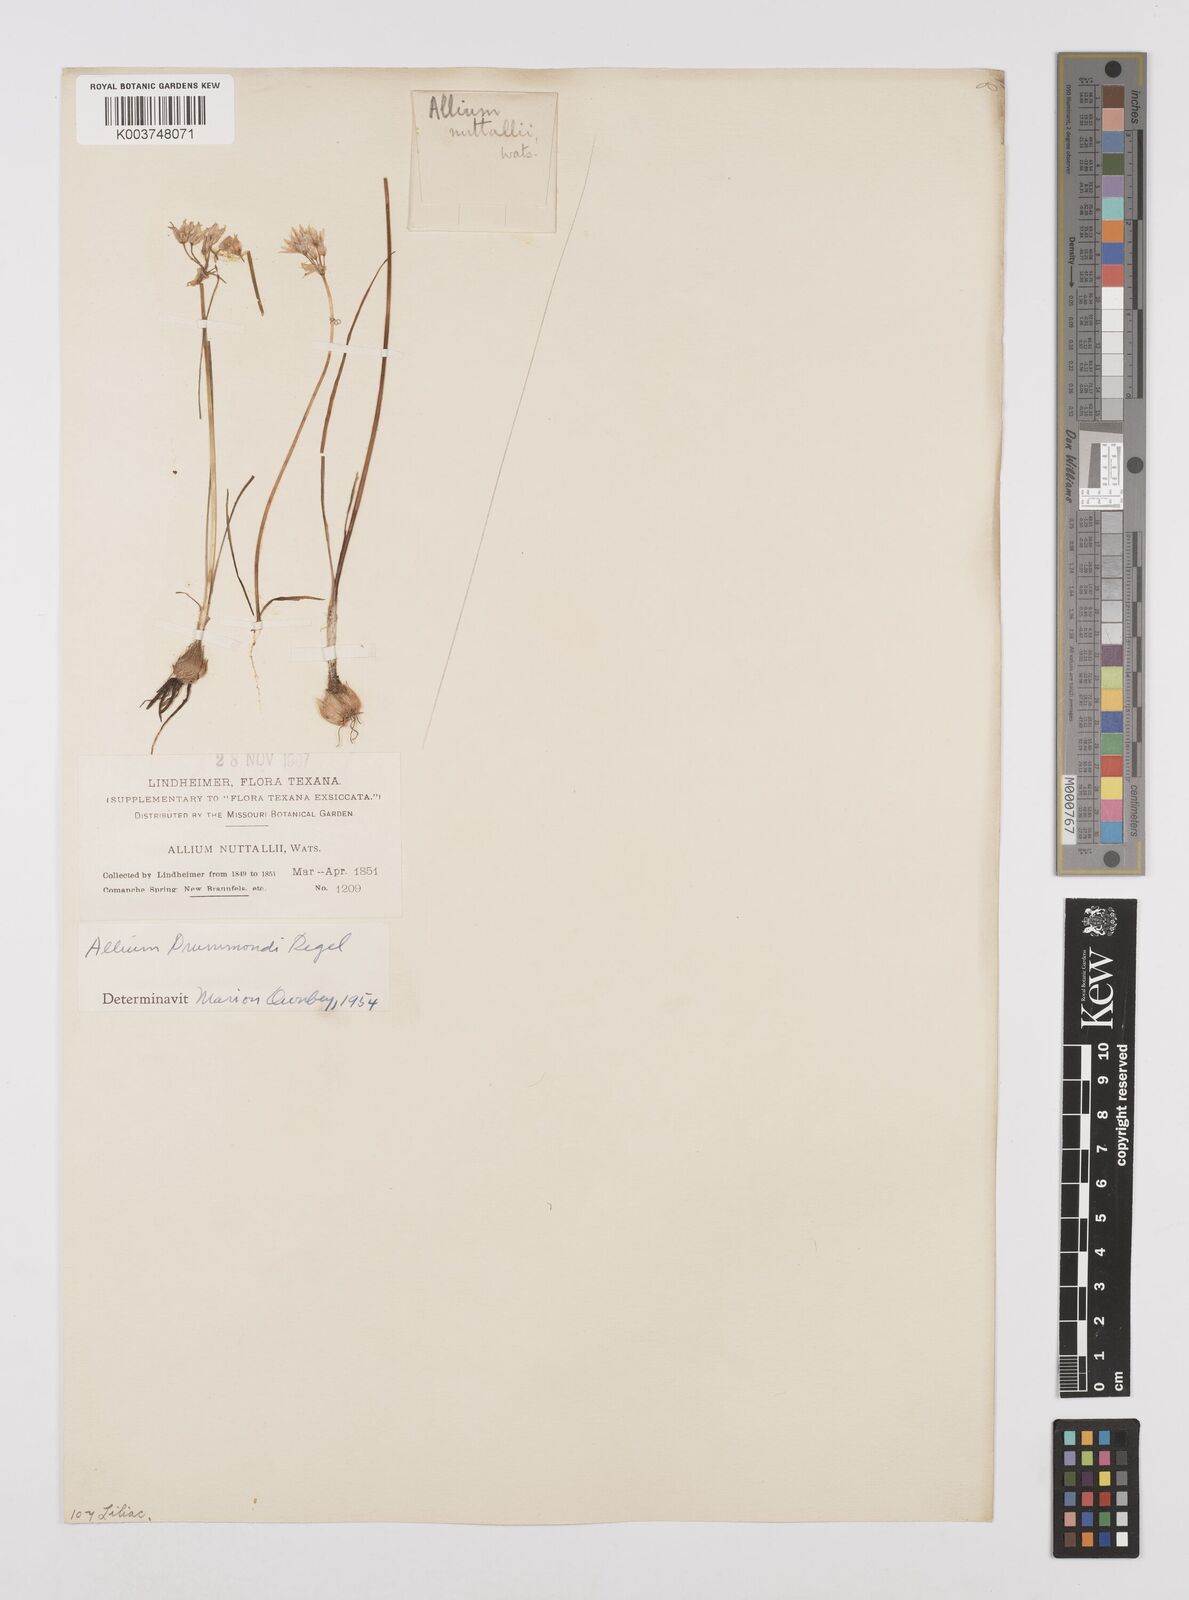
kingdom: Plantae
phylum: Tracheophyta
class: Liliopsida
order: Asparagales
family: Amaryllidaceae
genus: Allium
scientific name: Allium drummondii
